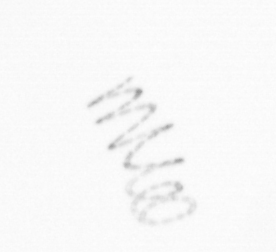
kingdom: Chromista
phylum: Ochrophyta
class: Bacillariophyceae
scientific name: Bacillariophyceae
